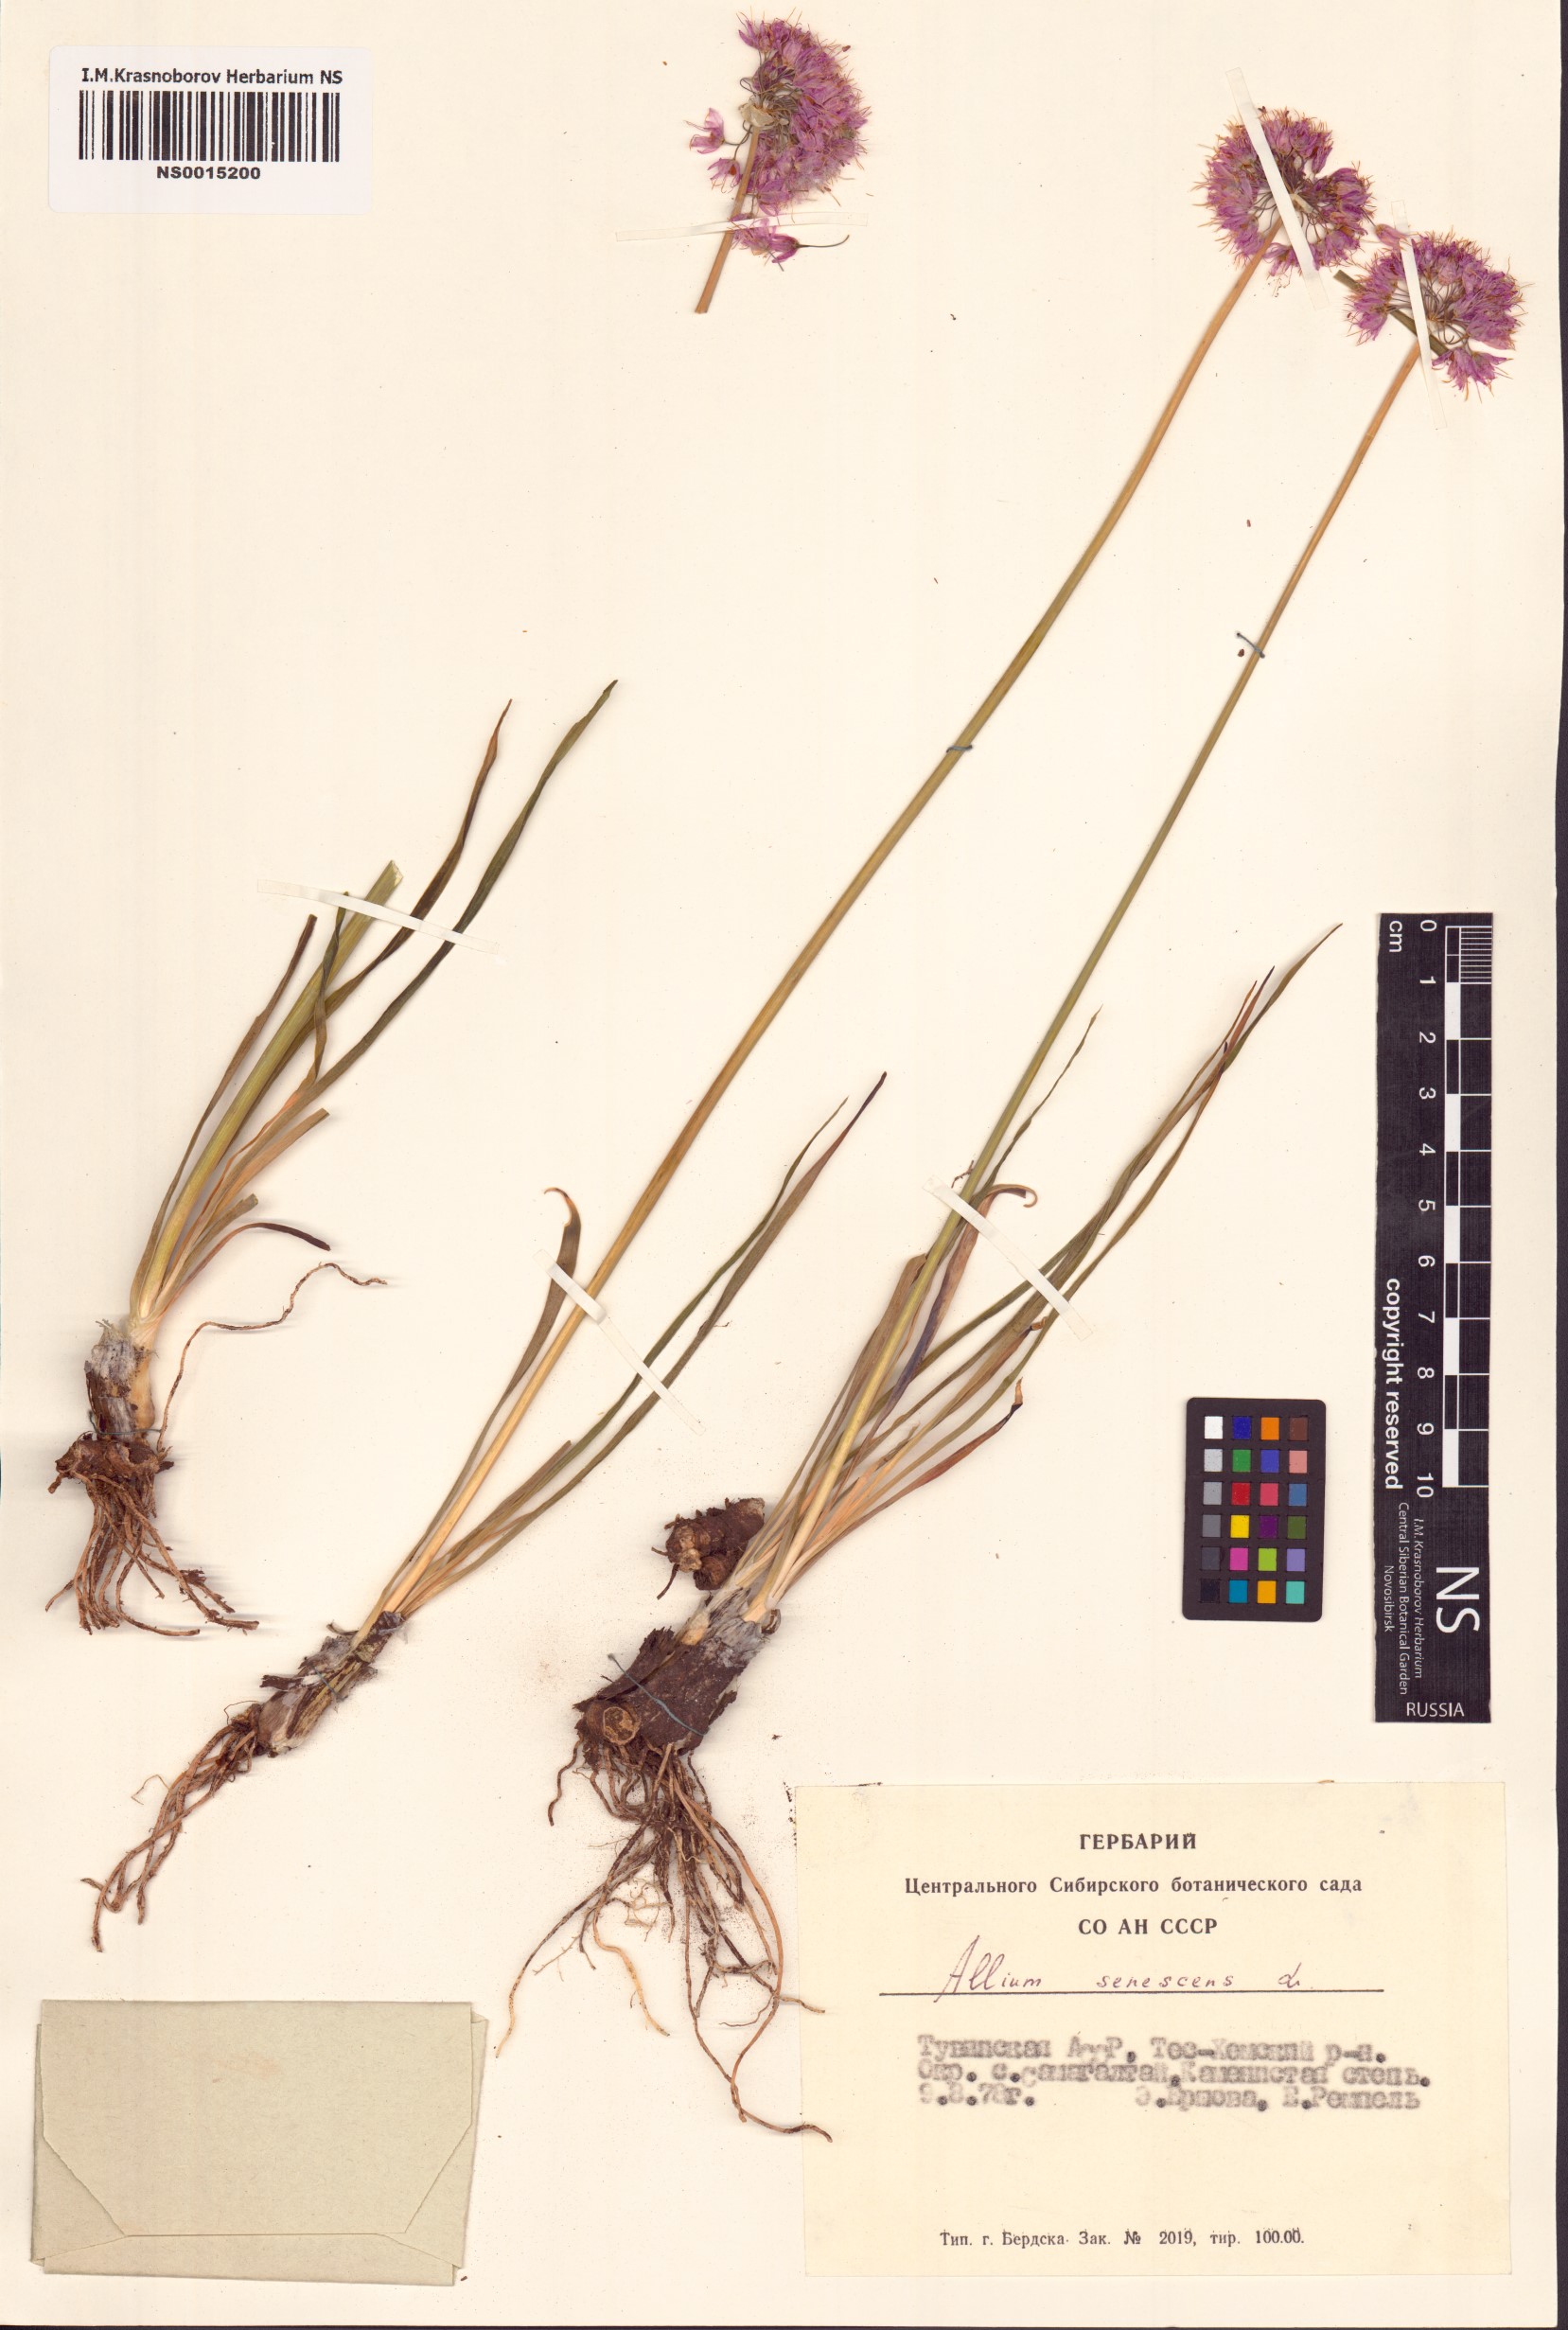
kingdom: Plantae
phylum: Tracheophyta
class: Liliopsida
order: Asparagales
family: Amaryllidaceae
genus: Allium
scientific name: Allium senescens
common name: German garlic
